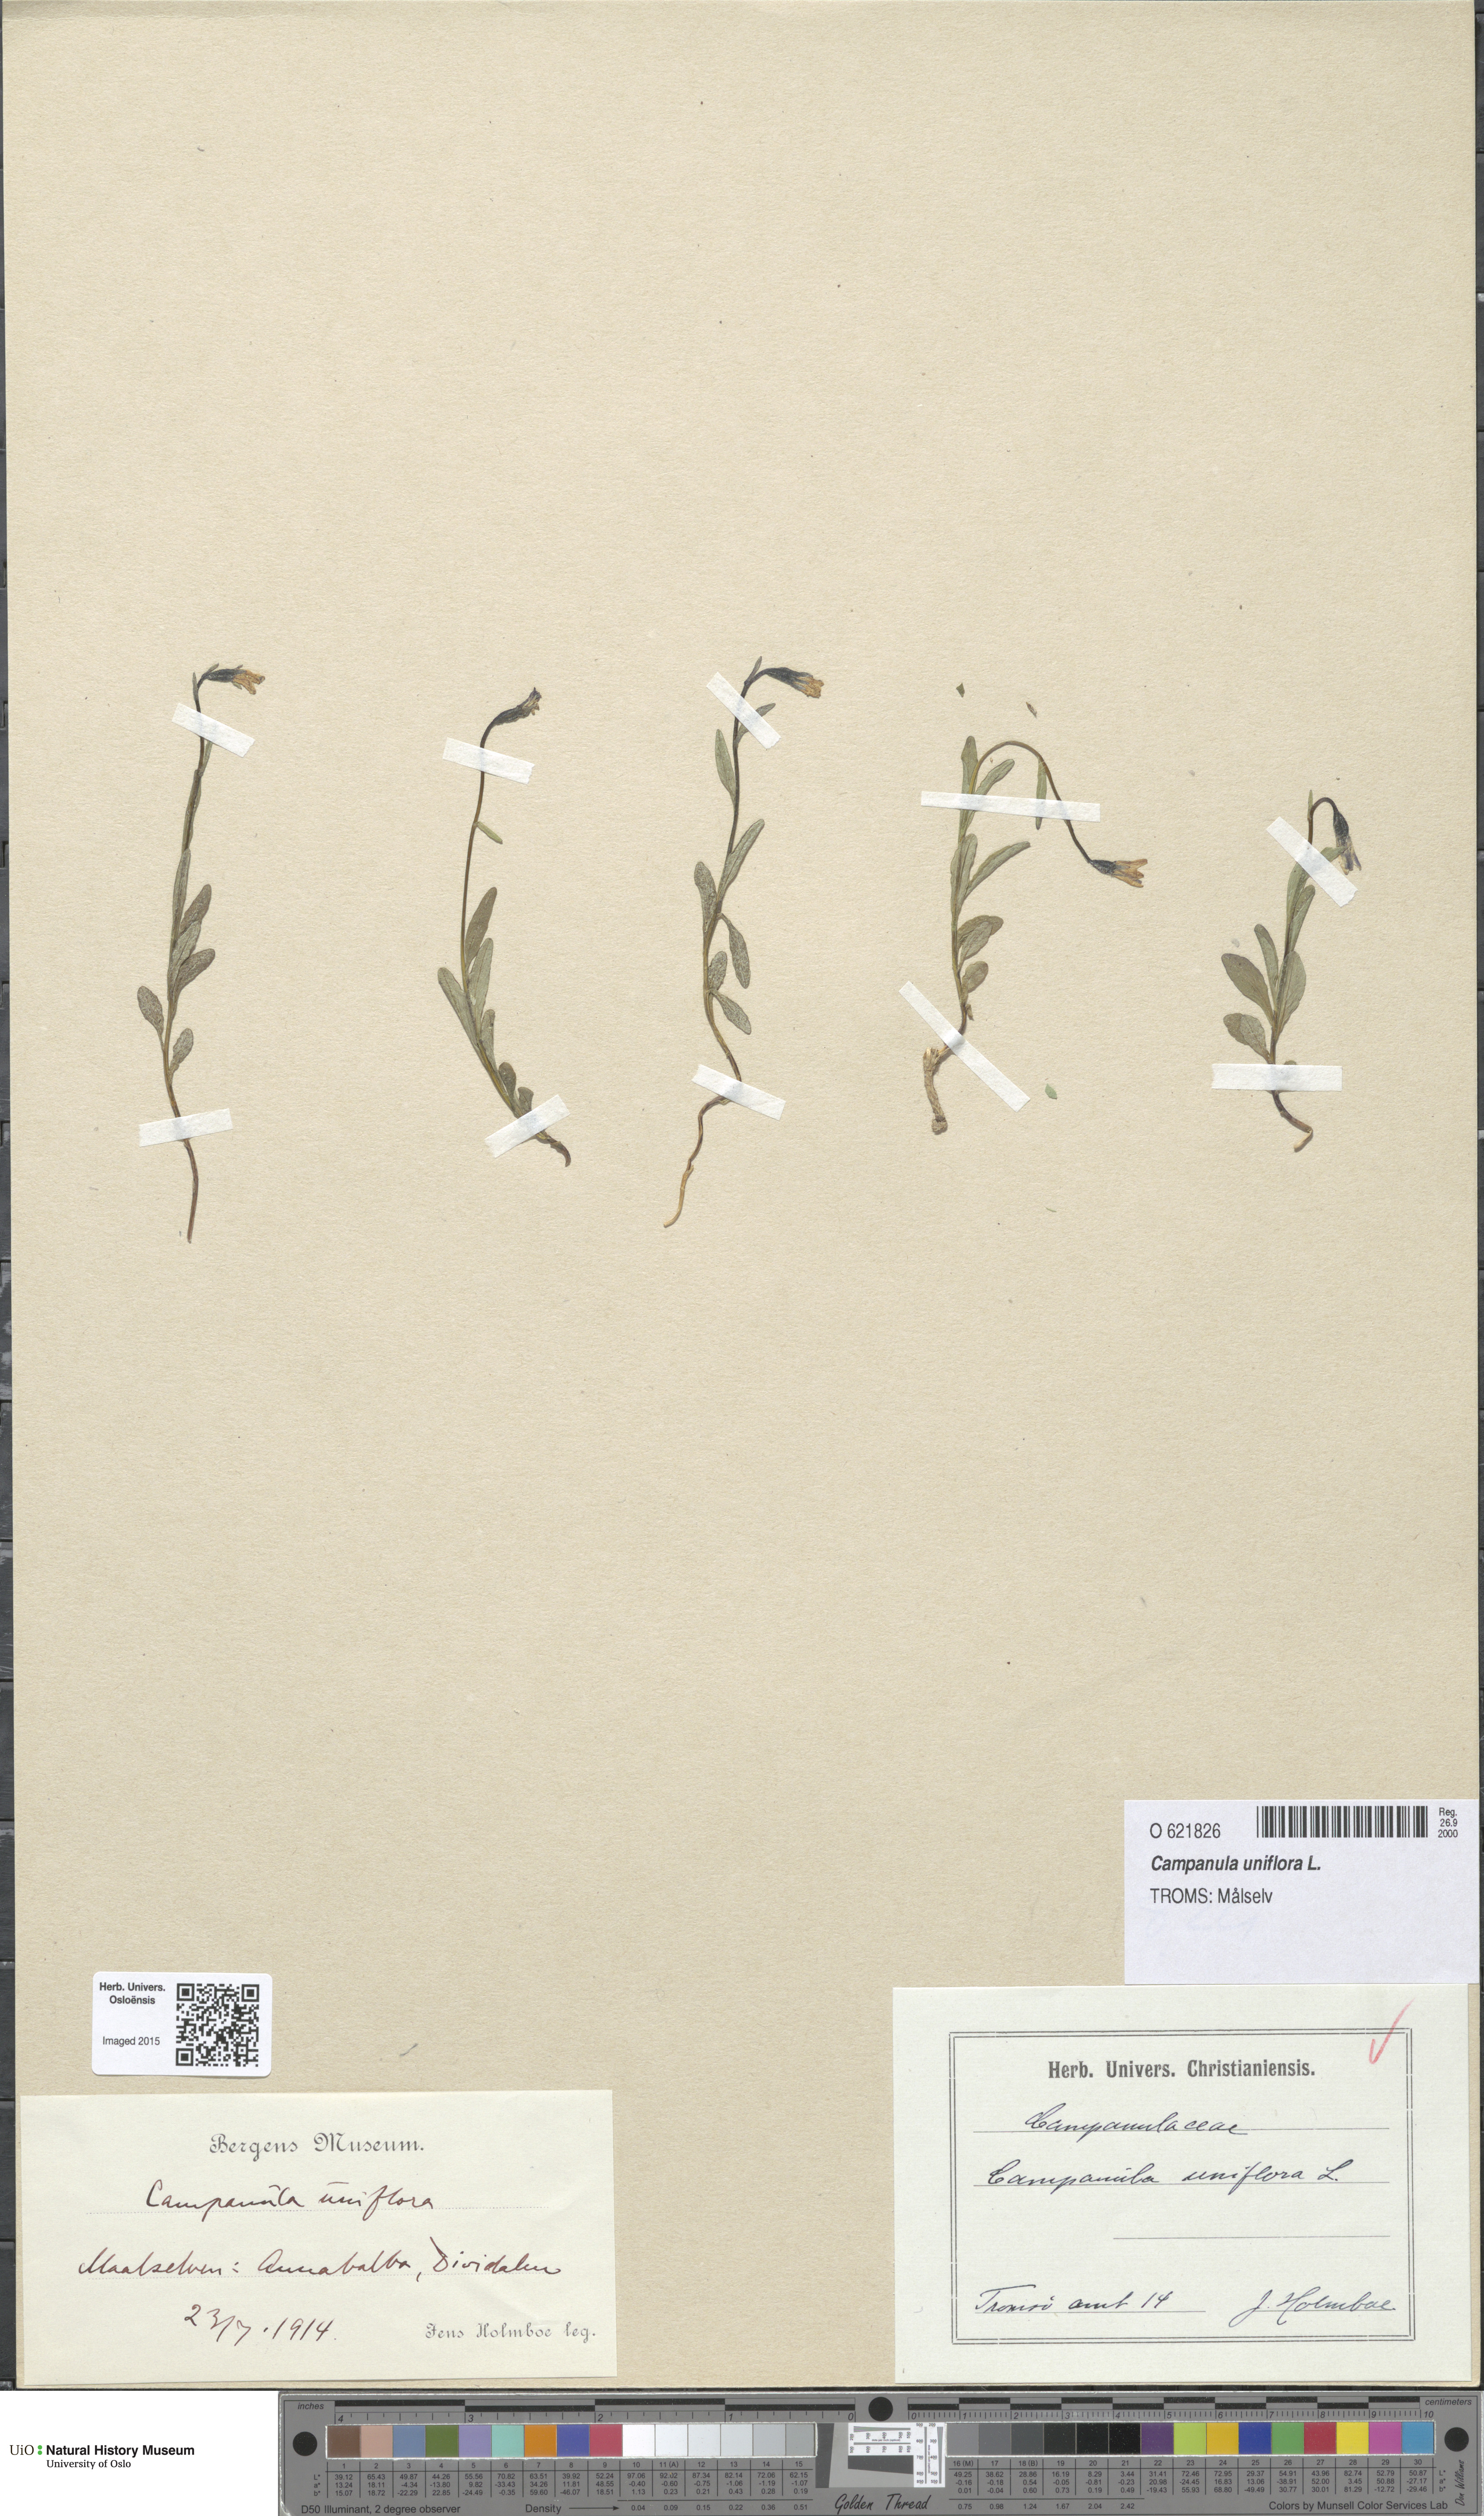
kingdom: Plantae
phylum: Tracheophyta
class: Magnoliopsida
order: Asterales
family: Campanulaceae
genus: Melanocalyx
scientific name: Melanocalyx uniflora
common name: Alpine harebell
